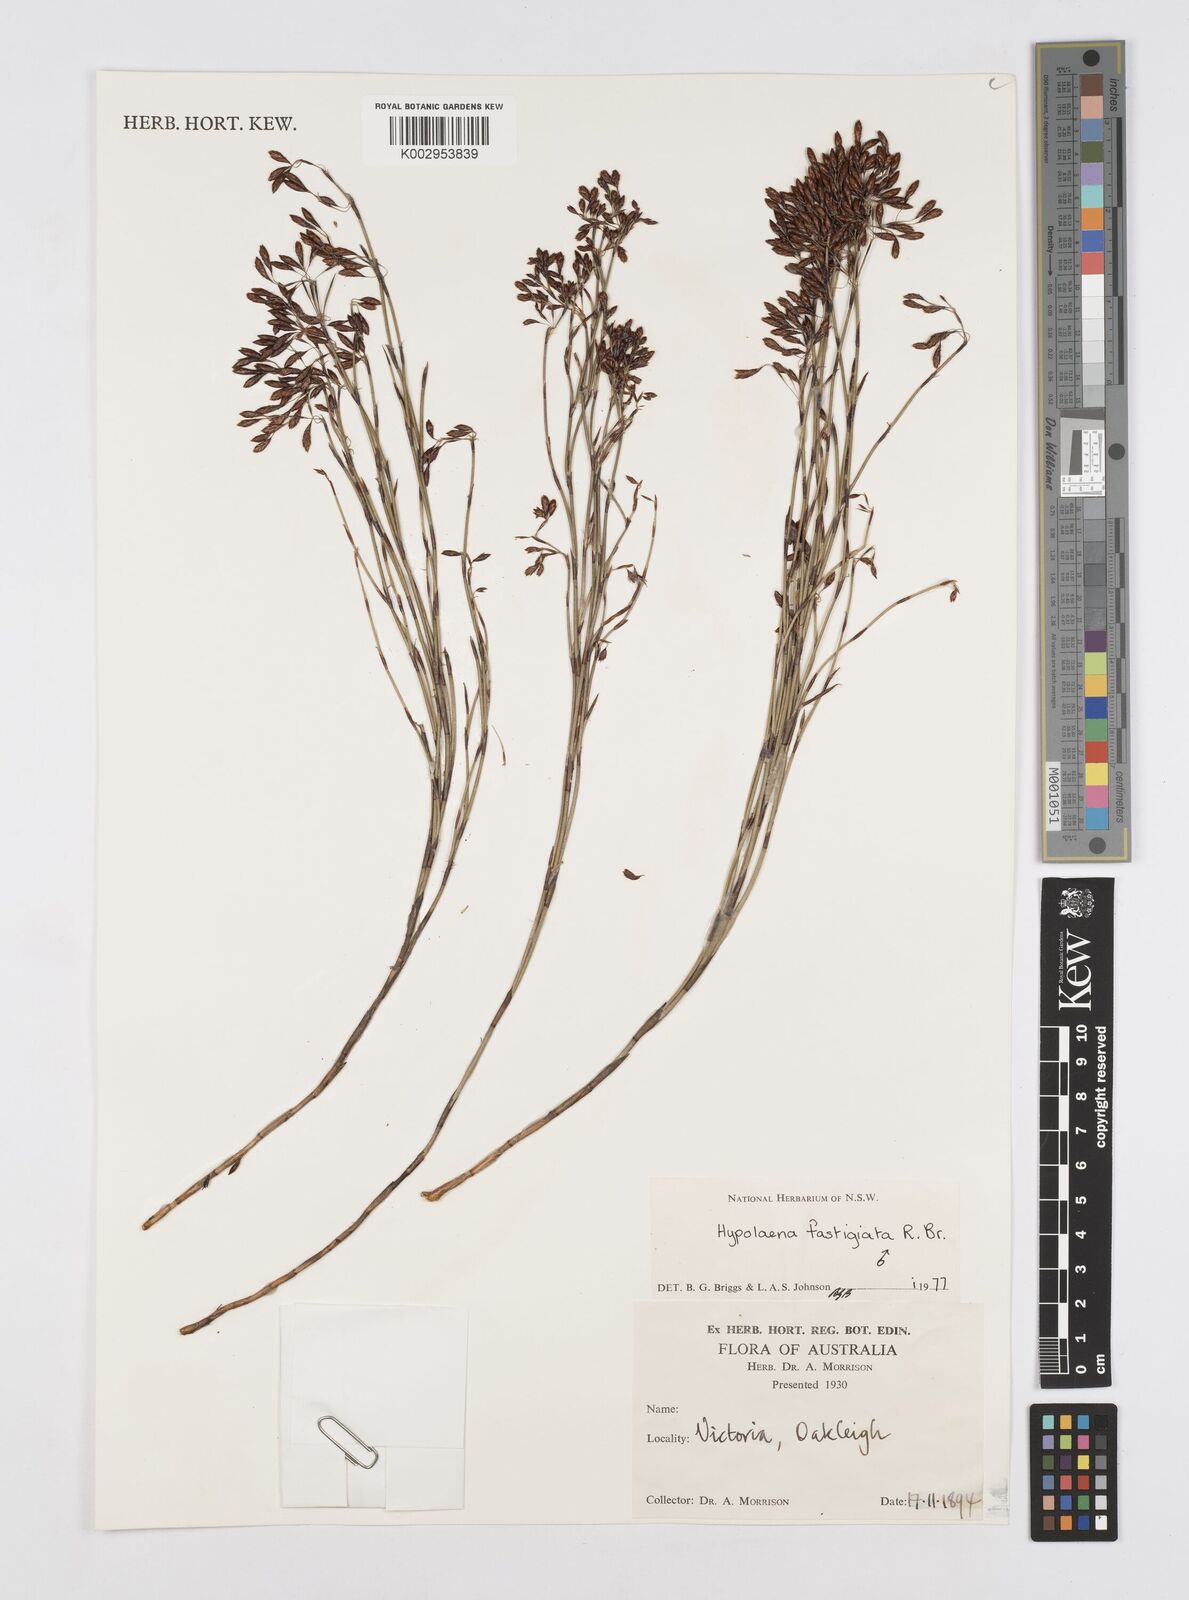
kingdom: Plantae
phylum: Tracheophyta
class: Liliopsida
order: Poales
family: Restionaceae
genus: Hypolaena
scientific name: Hypolaena fastigiata
